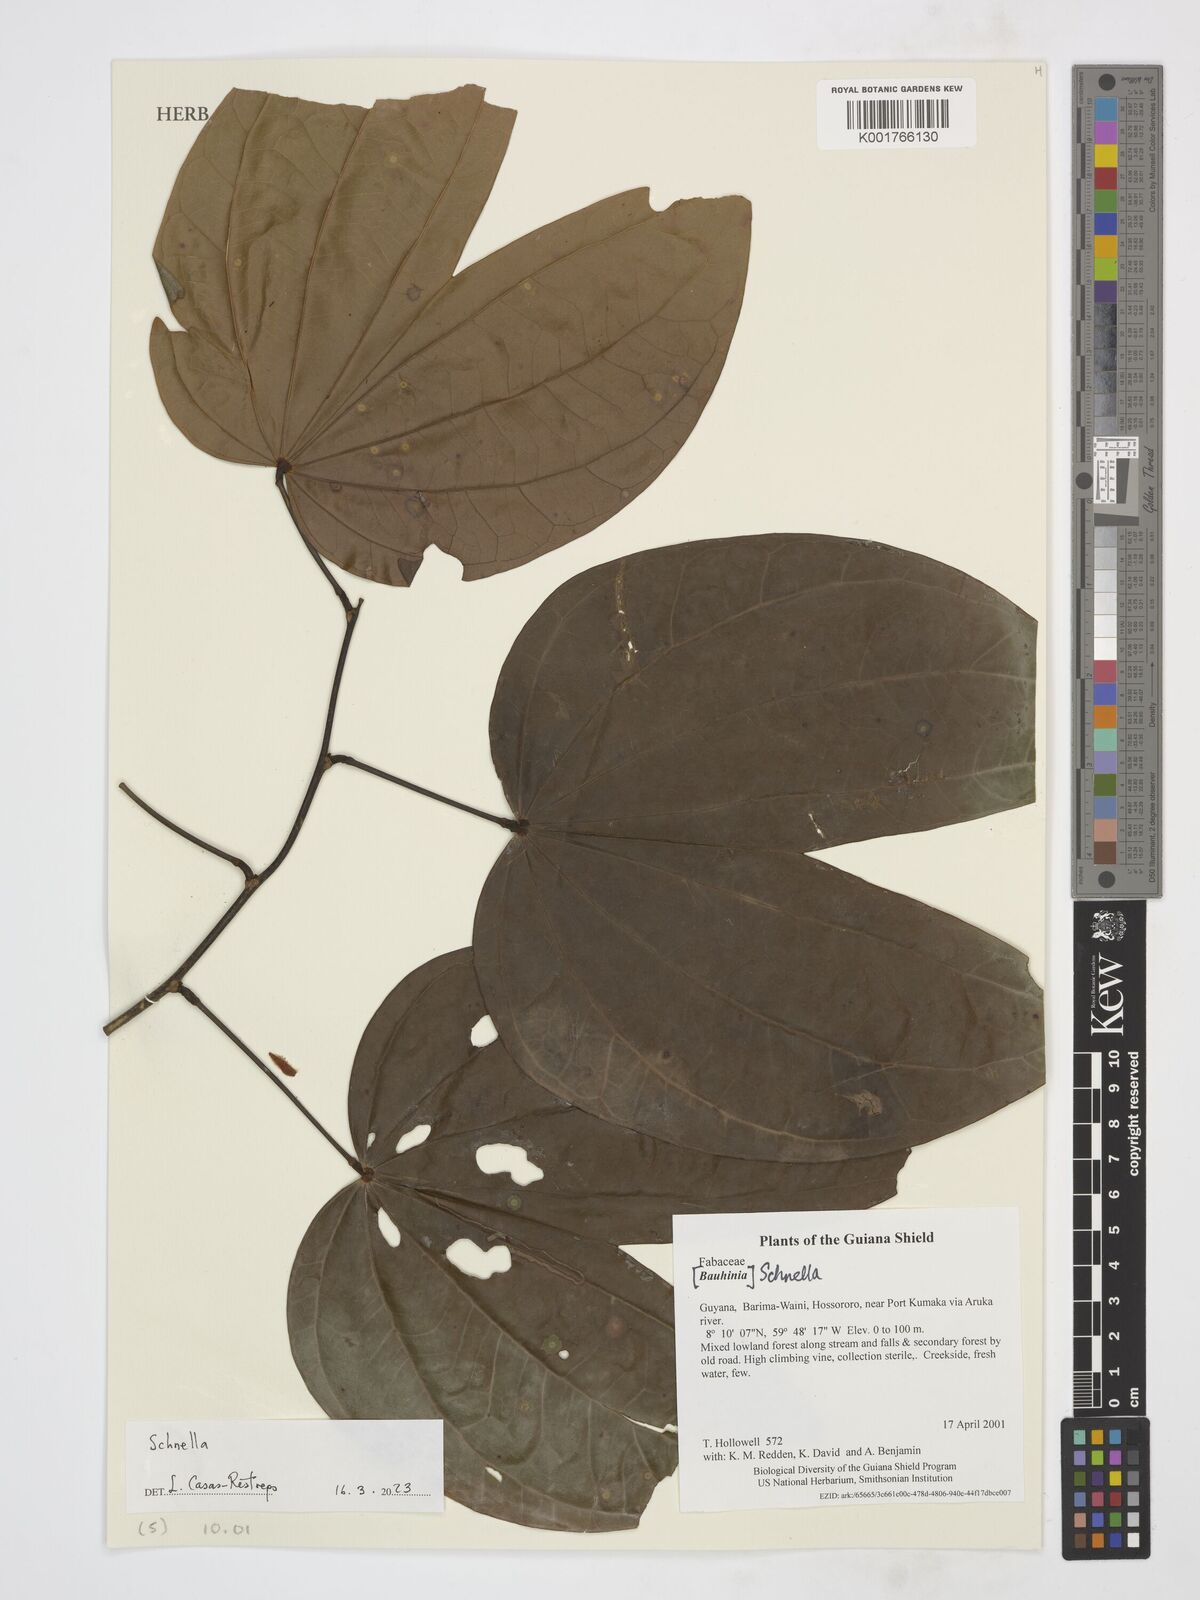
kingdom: Plantae
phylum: Tracheophyta
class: Magnoliopsida
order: Fabales
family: Fabaceae
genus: Schnella
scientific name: Schnella
